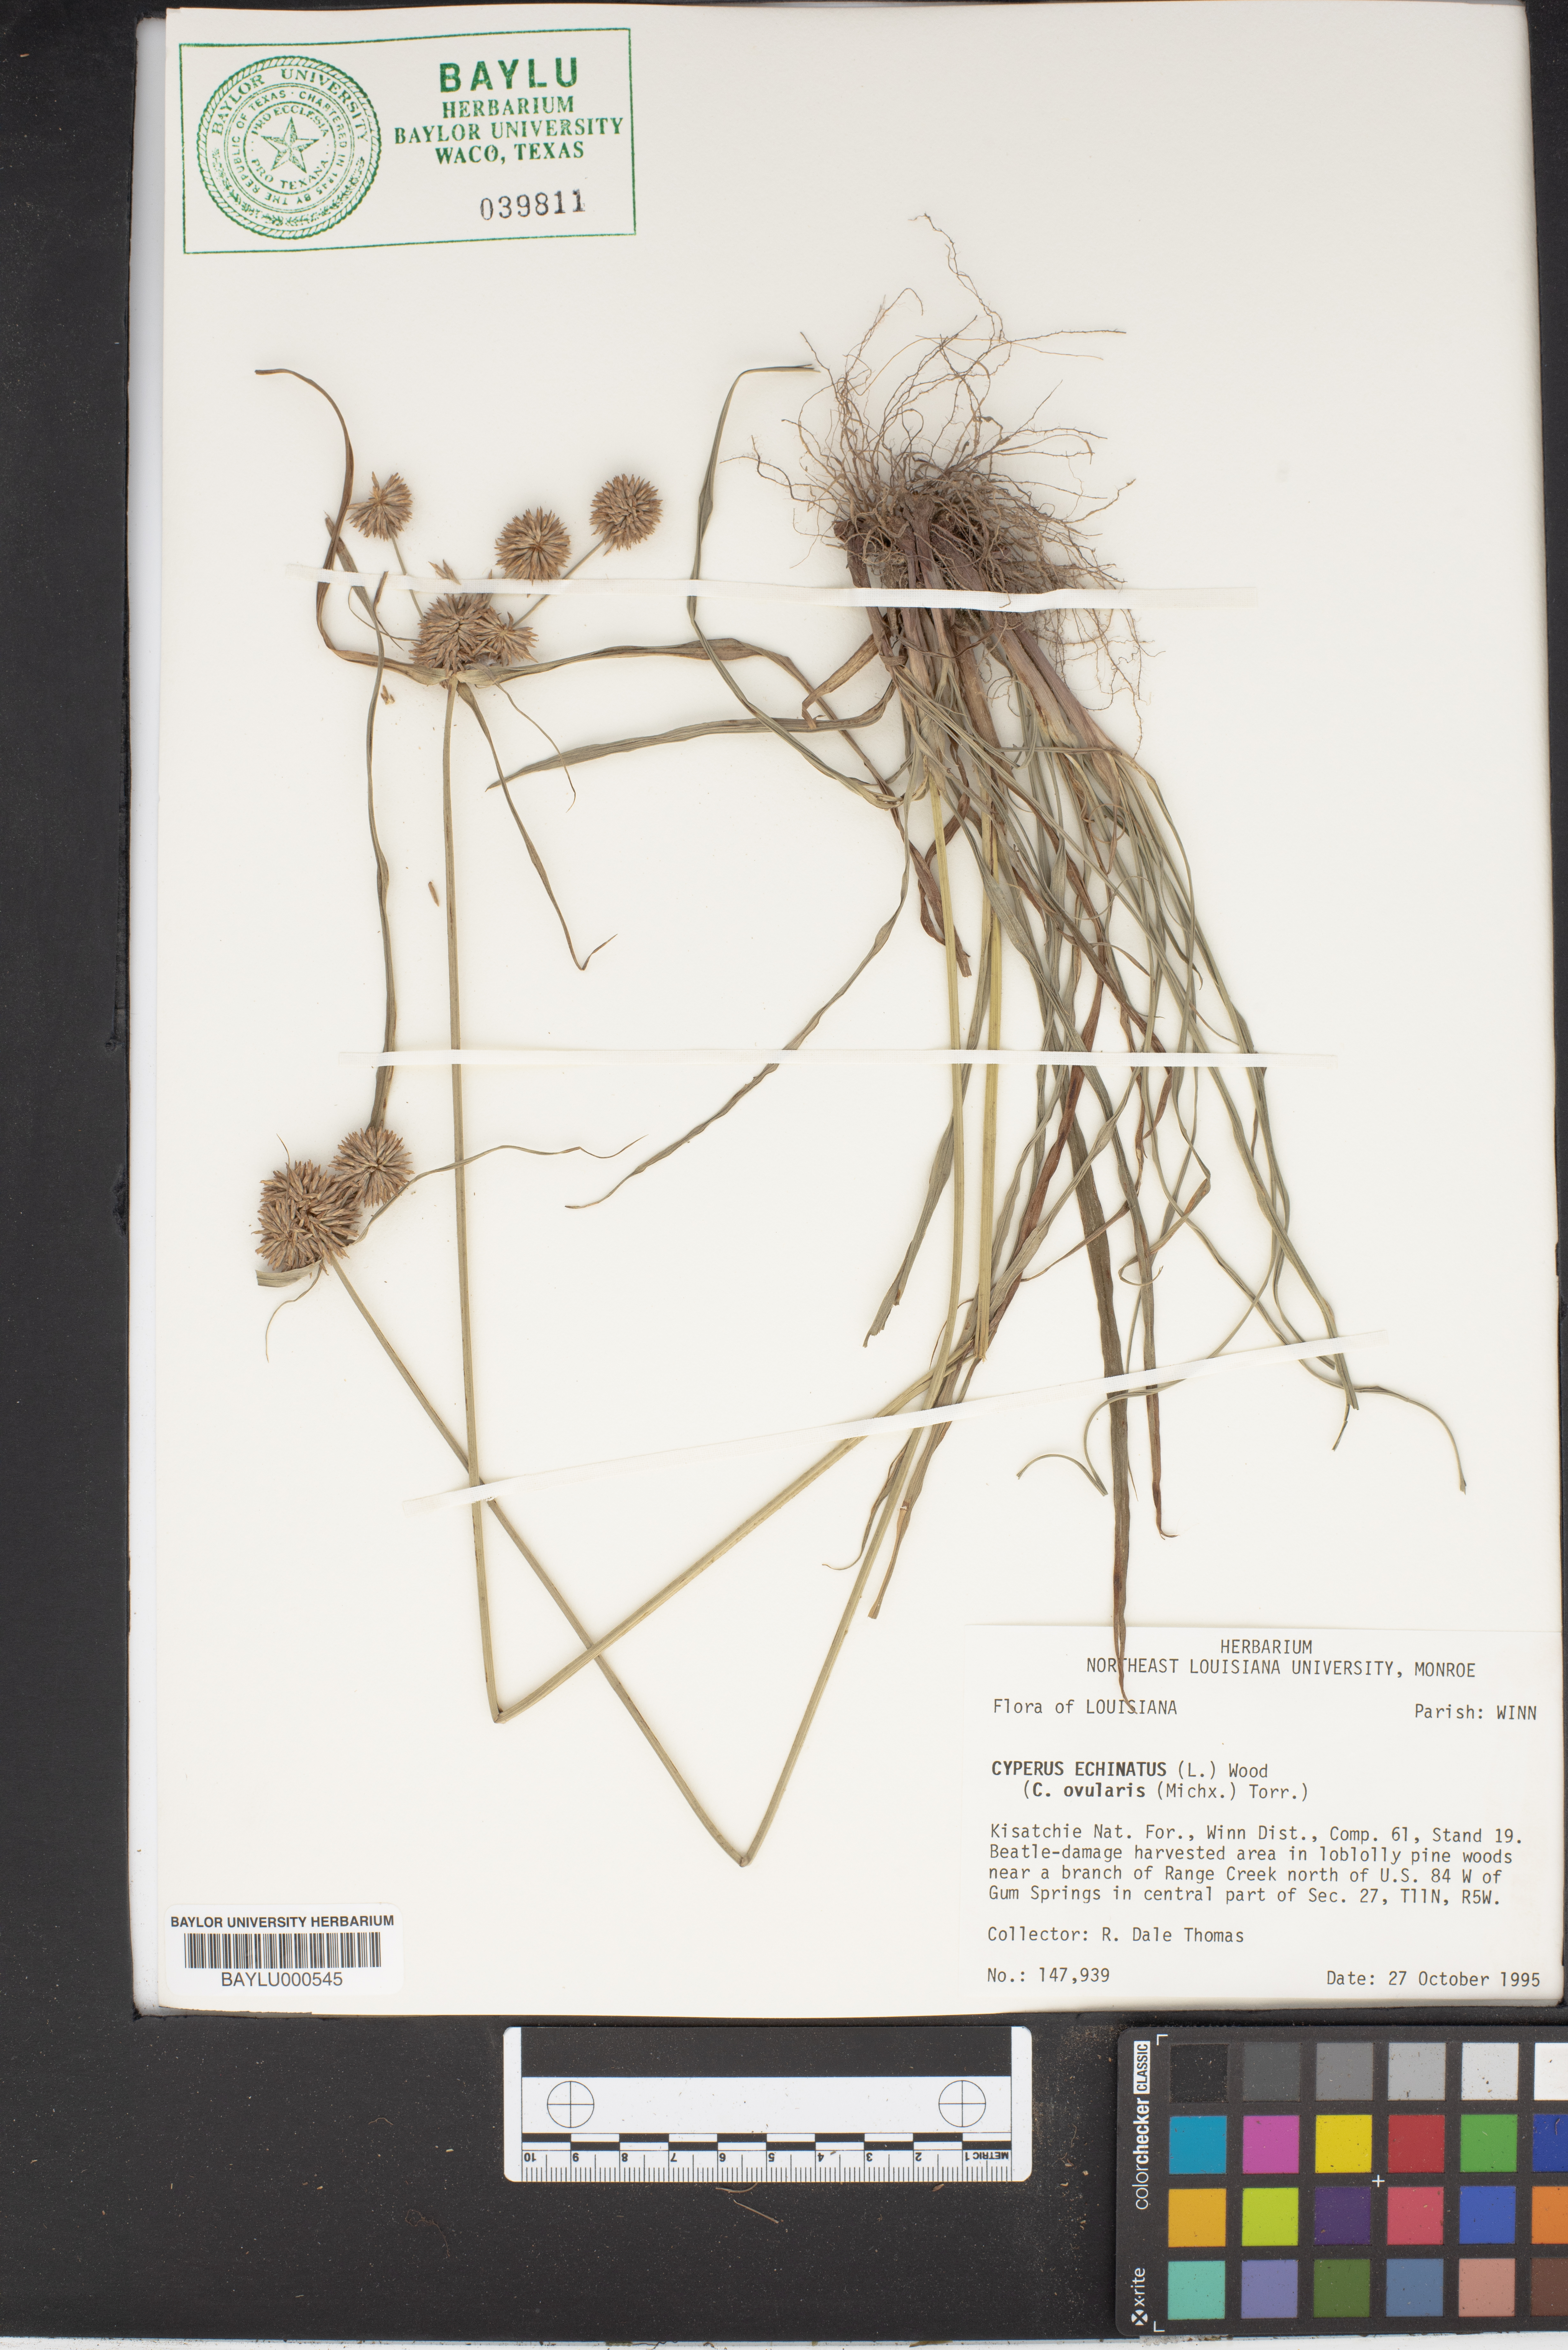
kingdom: Plantae
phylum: Tracheophyta
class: Liliopsida
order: Poales
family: Cyperaceae
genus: Cyperus
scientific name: Cyperus echinatus
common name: Teasel sedge
